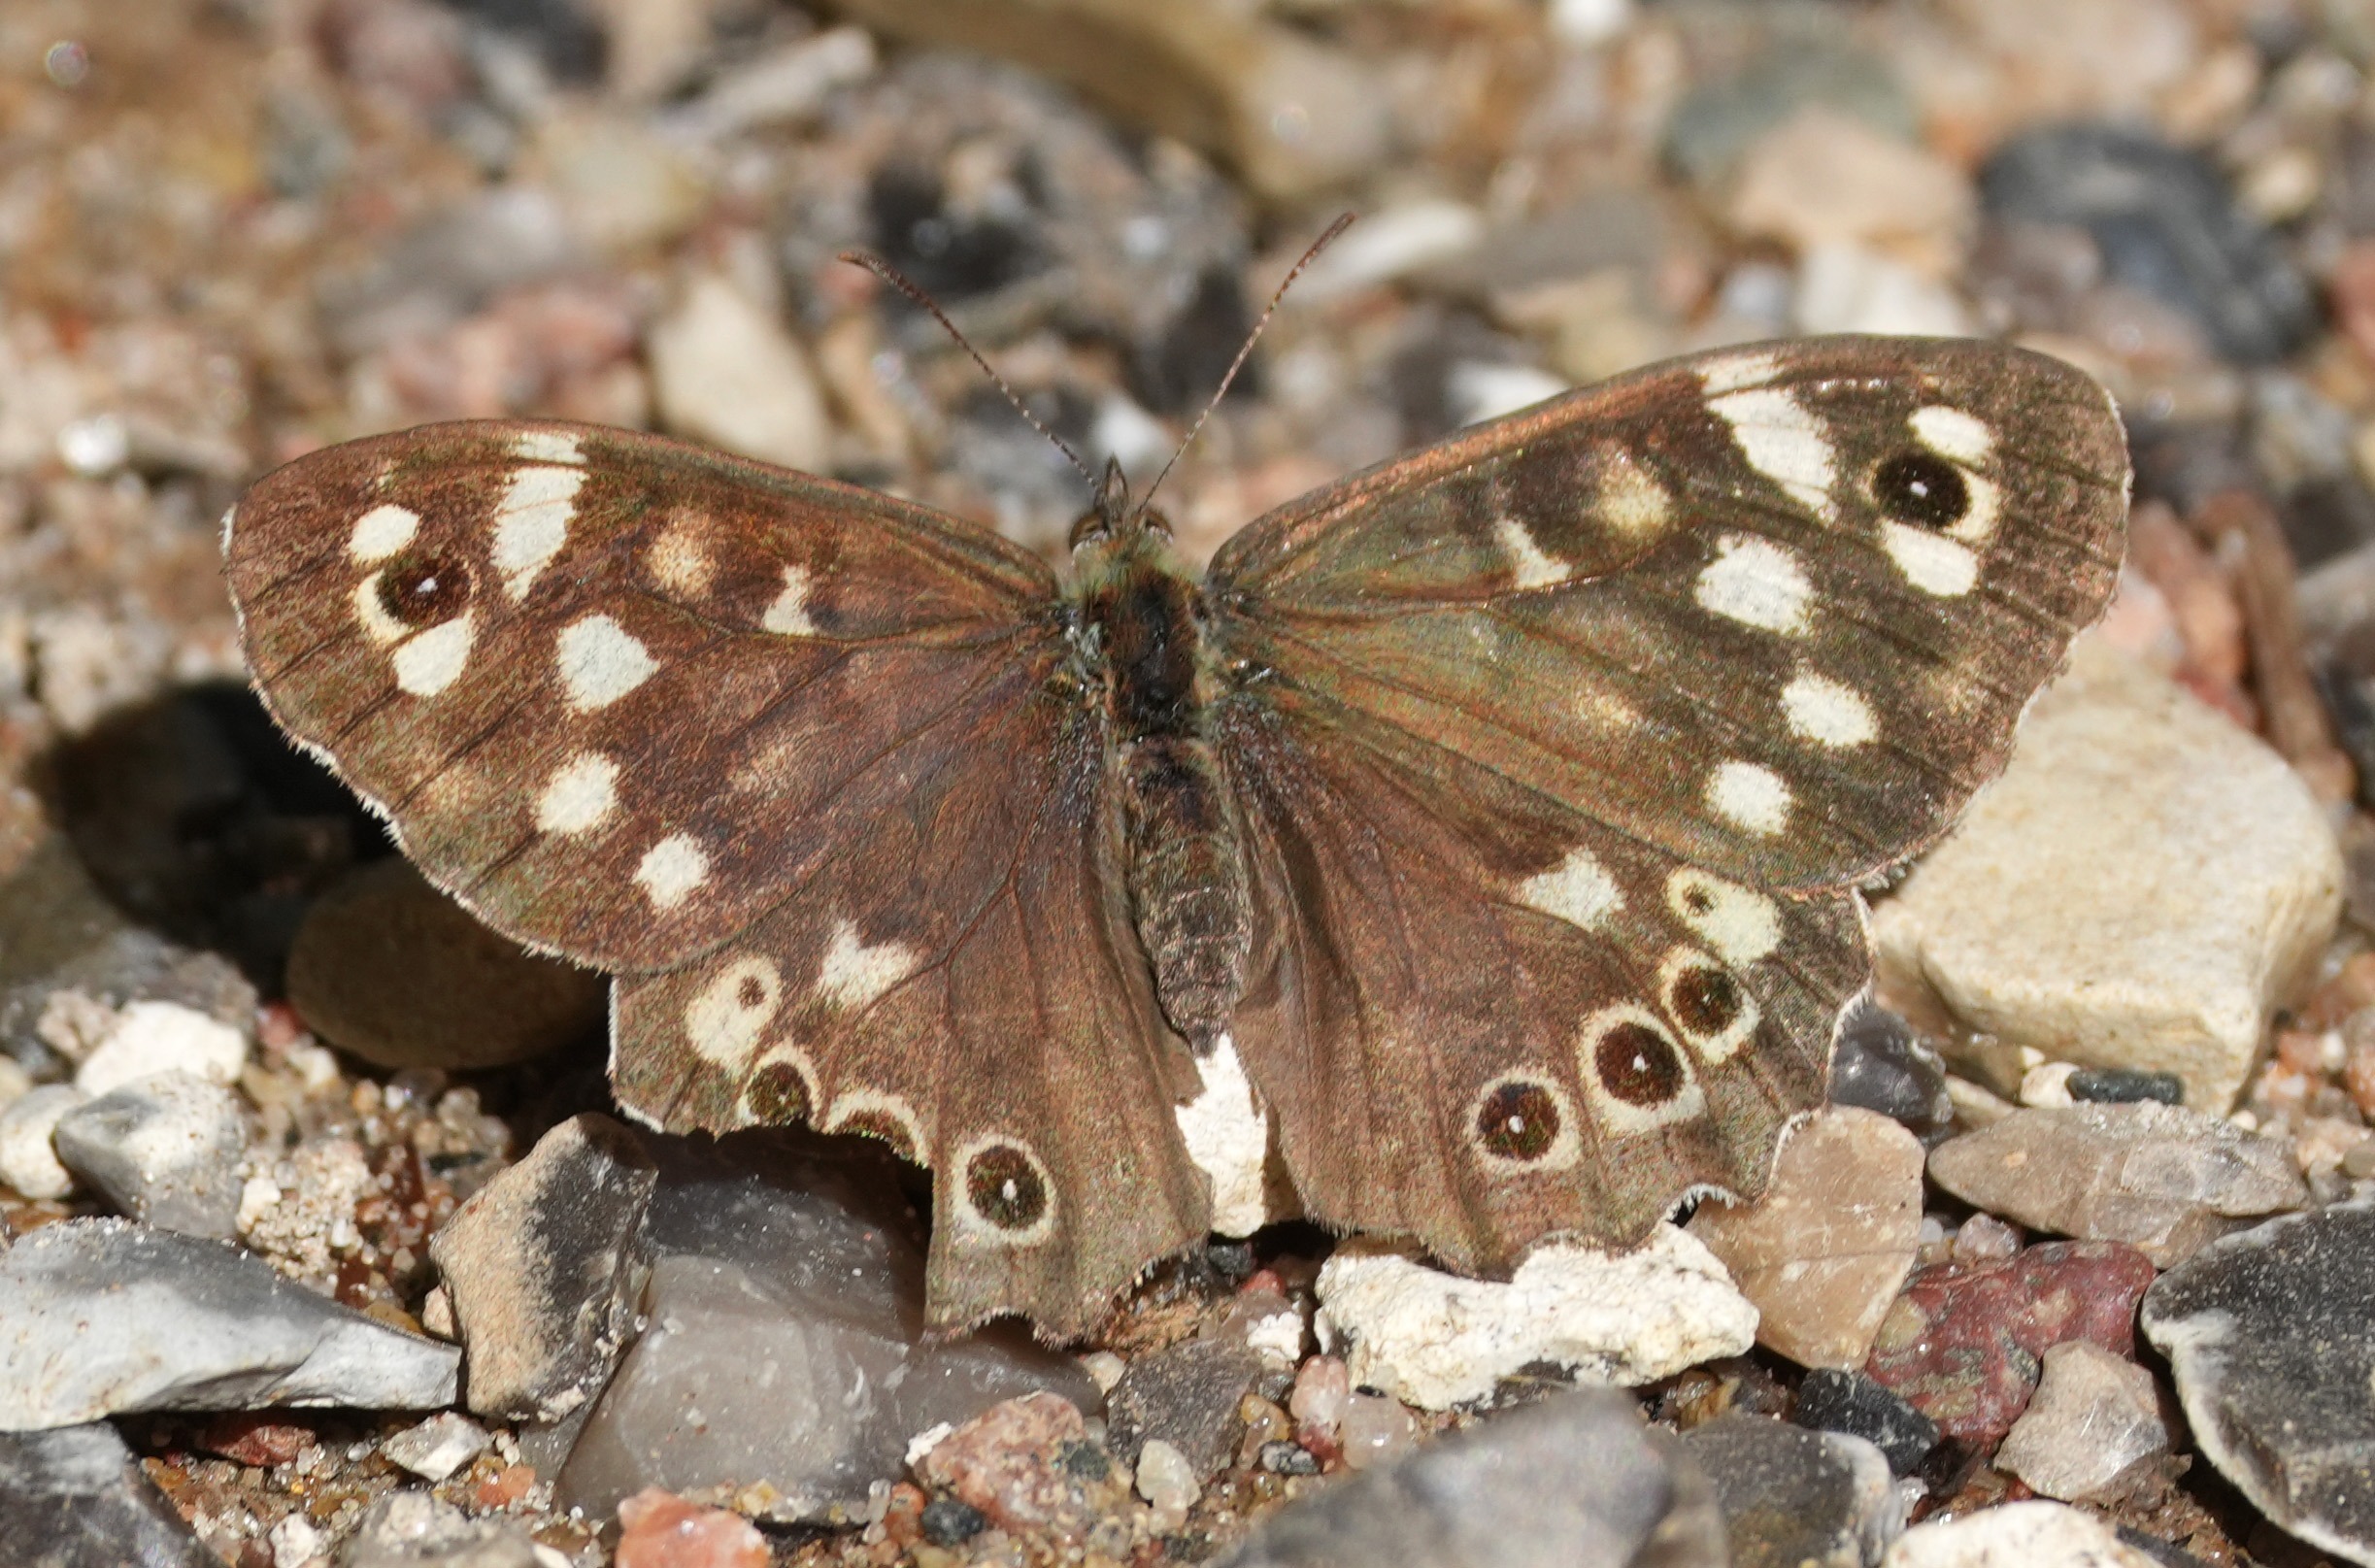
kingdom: Animalia
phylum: Arthropoda
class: Insecta
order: Lepidoptera
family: Nymphalidae
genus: Pararge
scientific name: Pararge aegeria
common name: Skovrandøje
